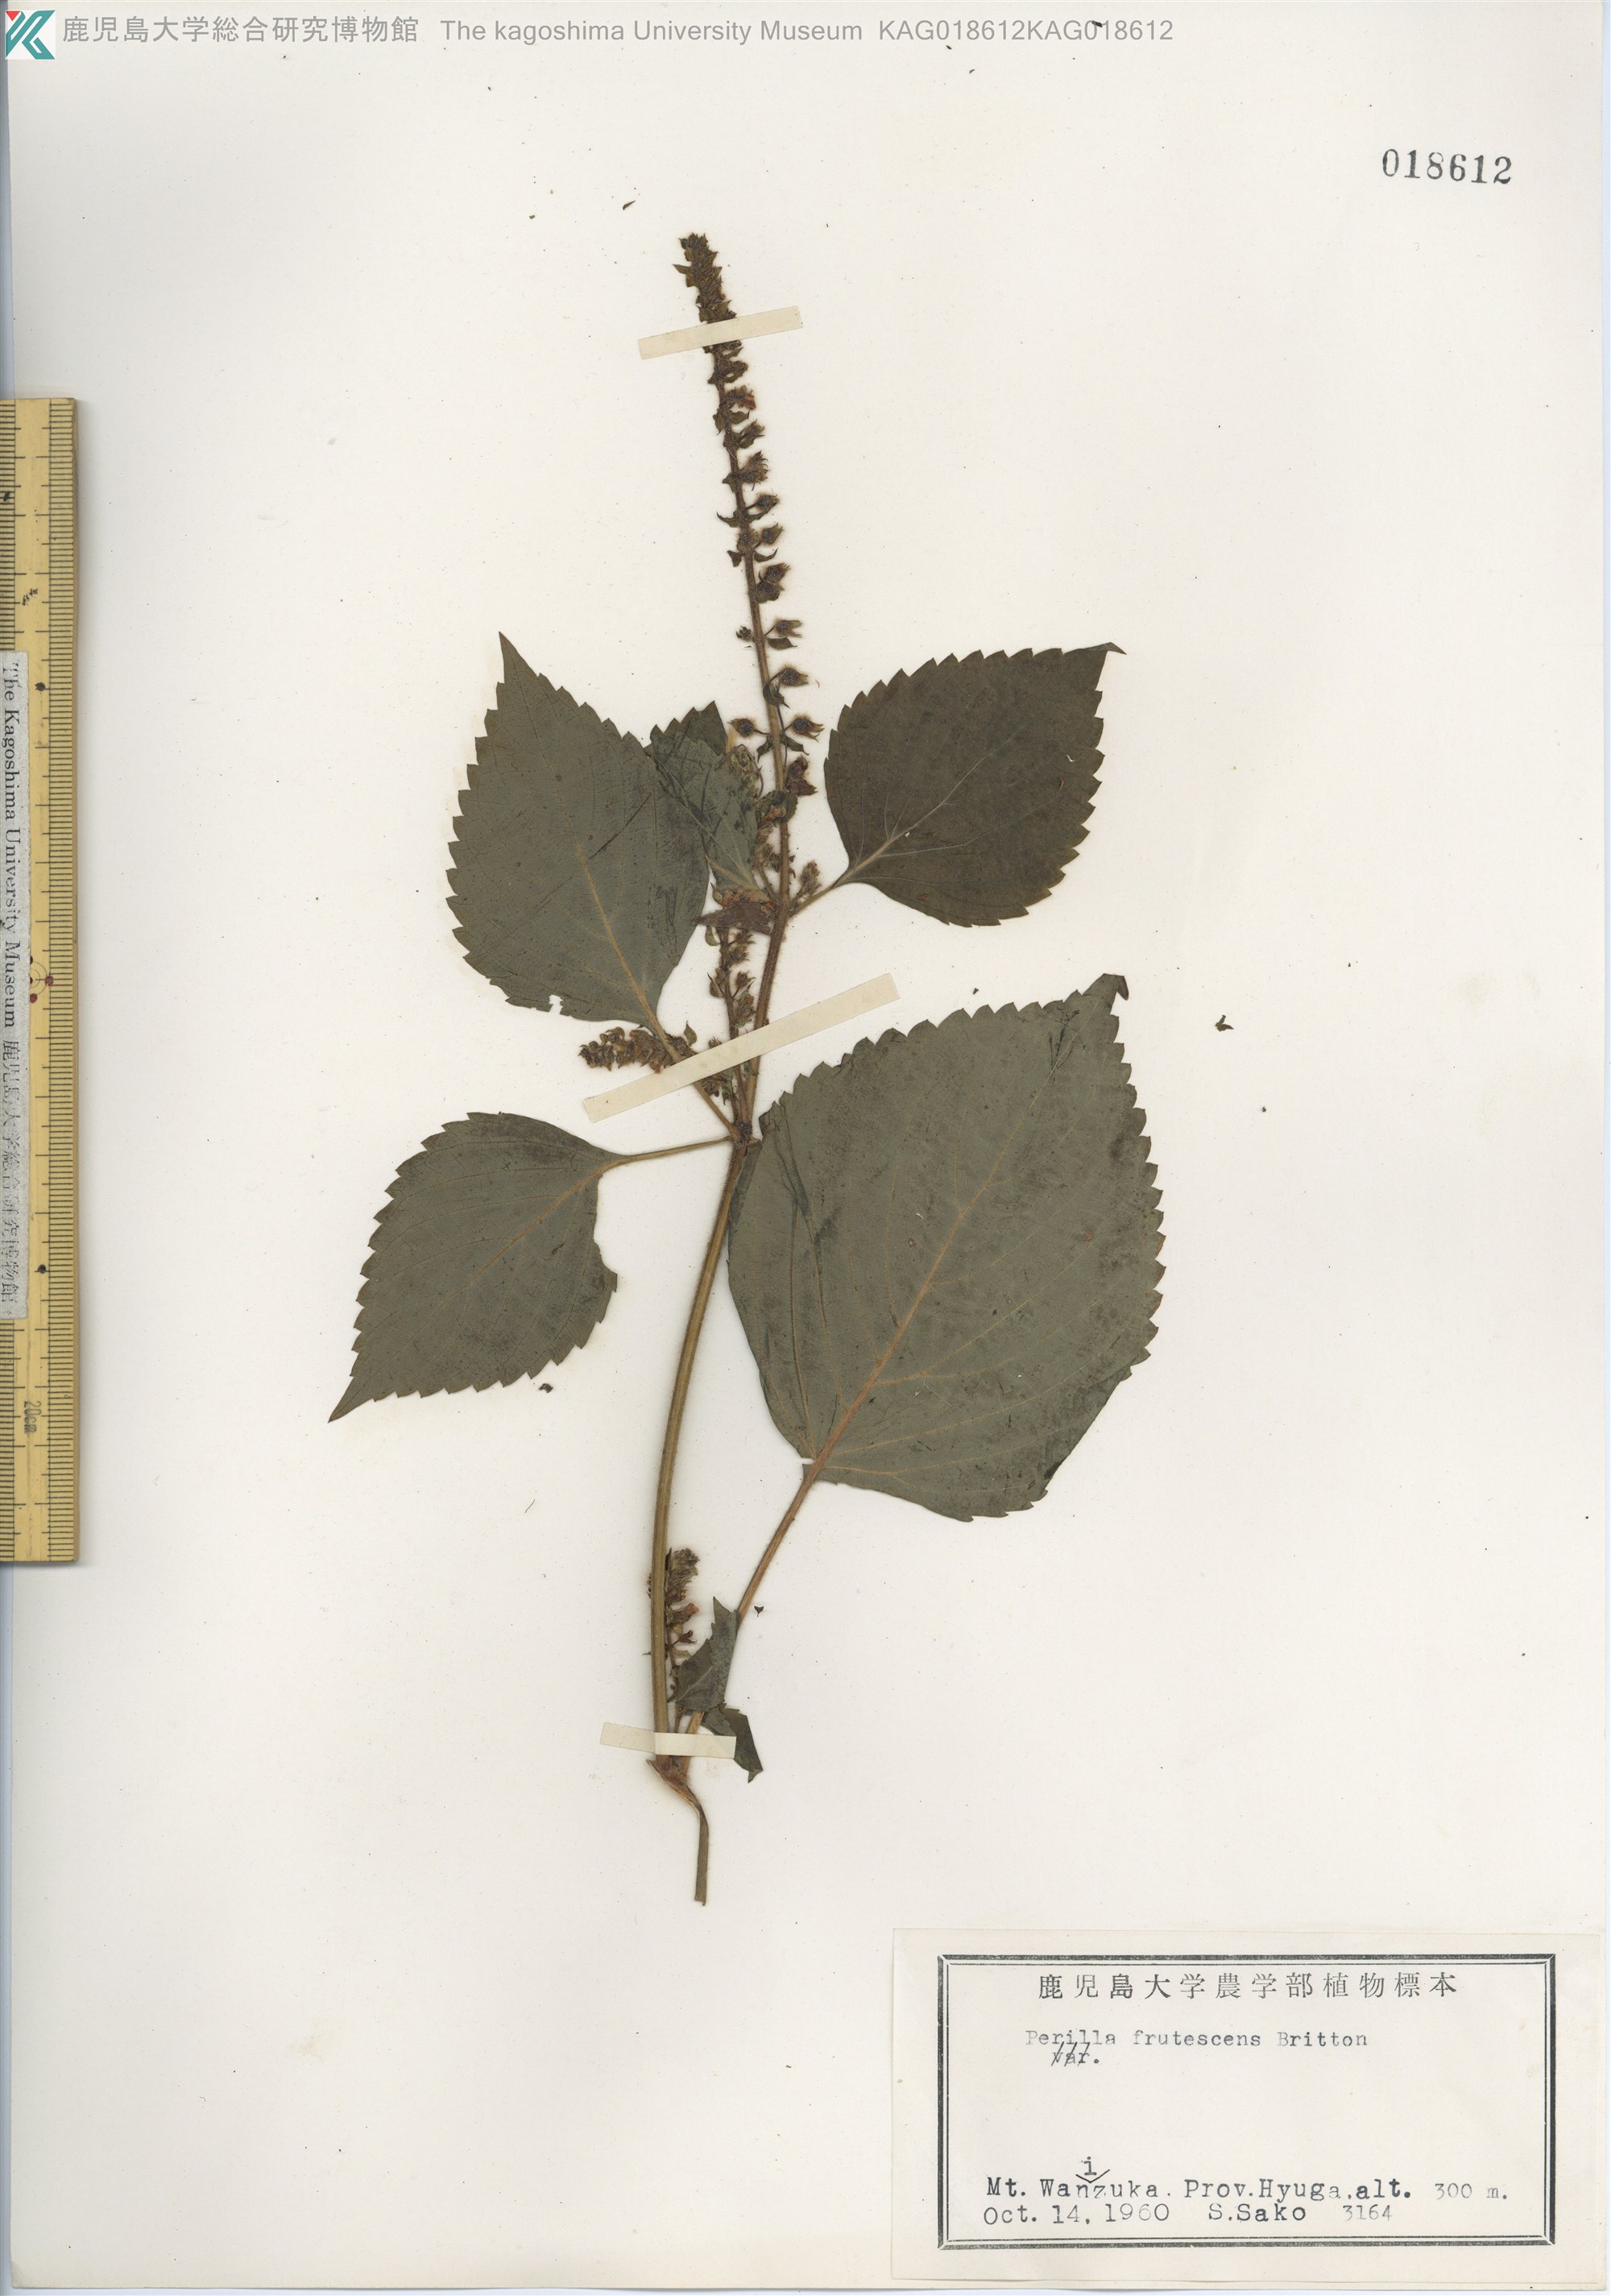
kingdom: Plantae
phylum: Tracheophyta
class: Magnoliopsida
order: Lamiales
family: Lamiaceae
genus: Perilla
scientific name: Perilla frutescens
